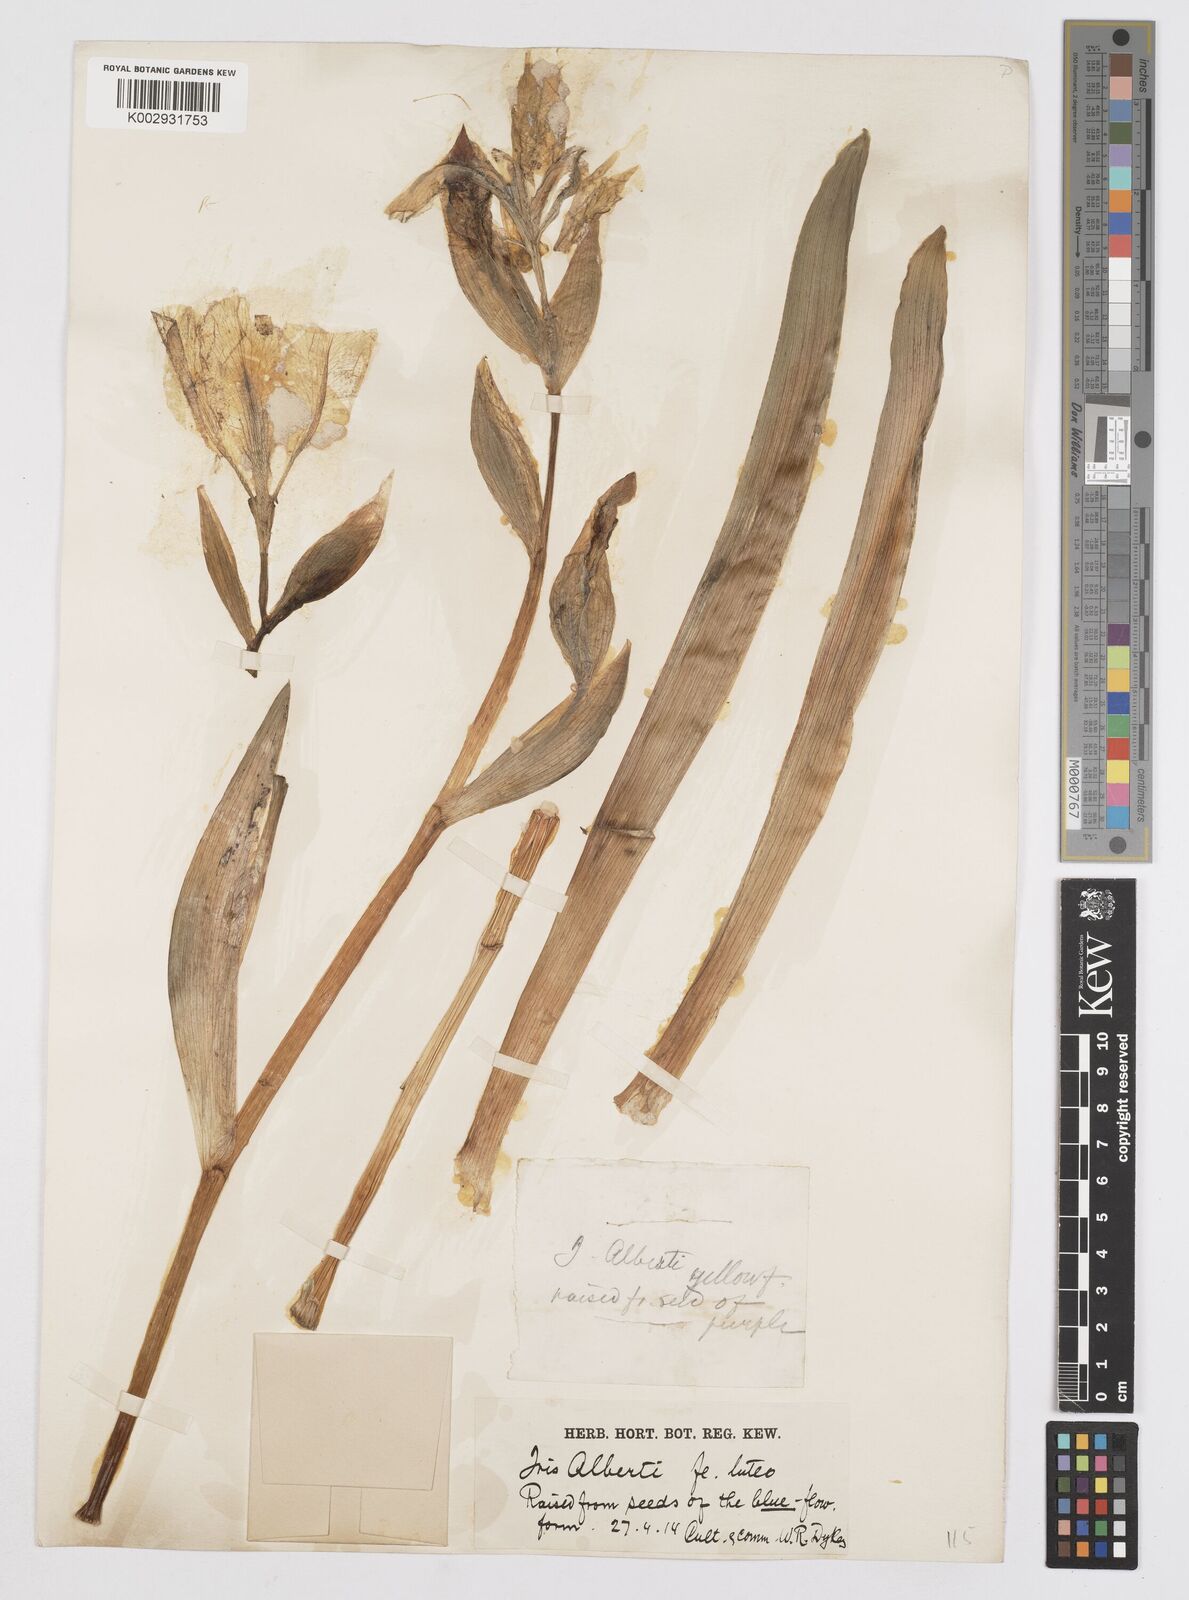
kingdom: Plantae
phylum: Tracheophyta
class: Liliopsida
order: Asparagales
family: Iridaceae
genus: Iris
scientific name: Iris alberti
